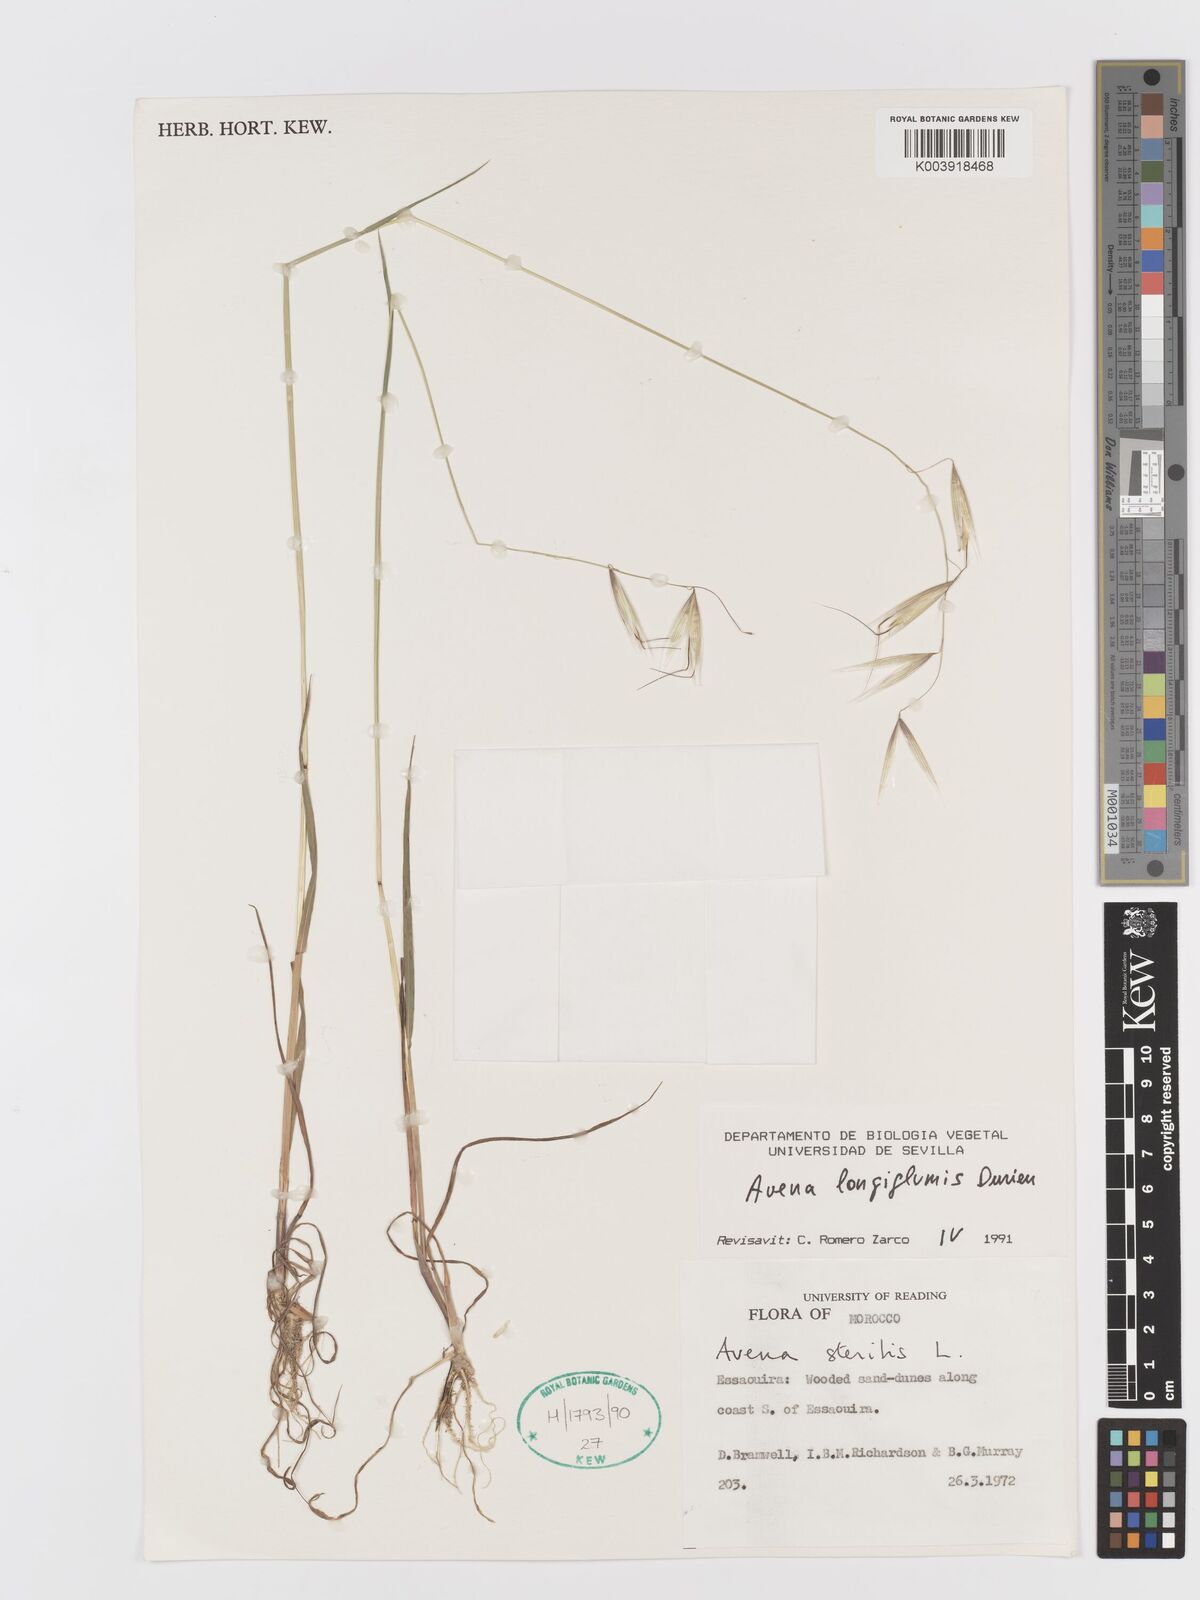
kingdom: Plantae
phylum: Tracheophyta
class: Liliopsida
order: Poales
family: Poaceae
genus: Avena
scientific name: Avena longiglumis
